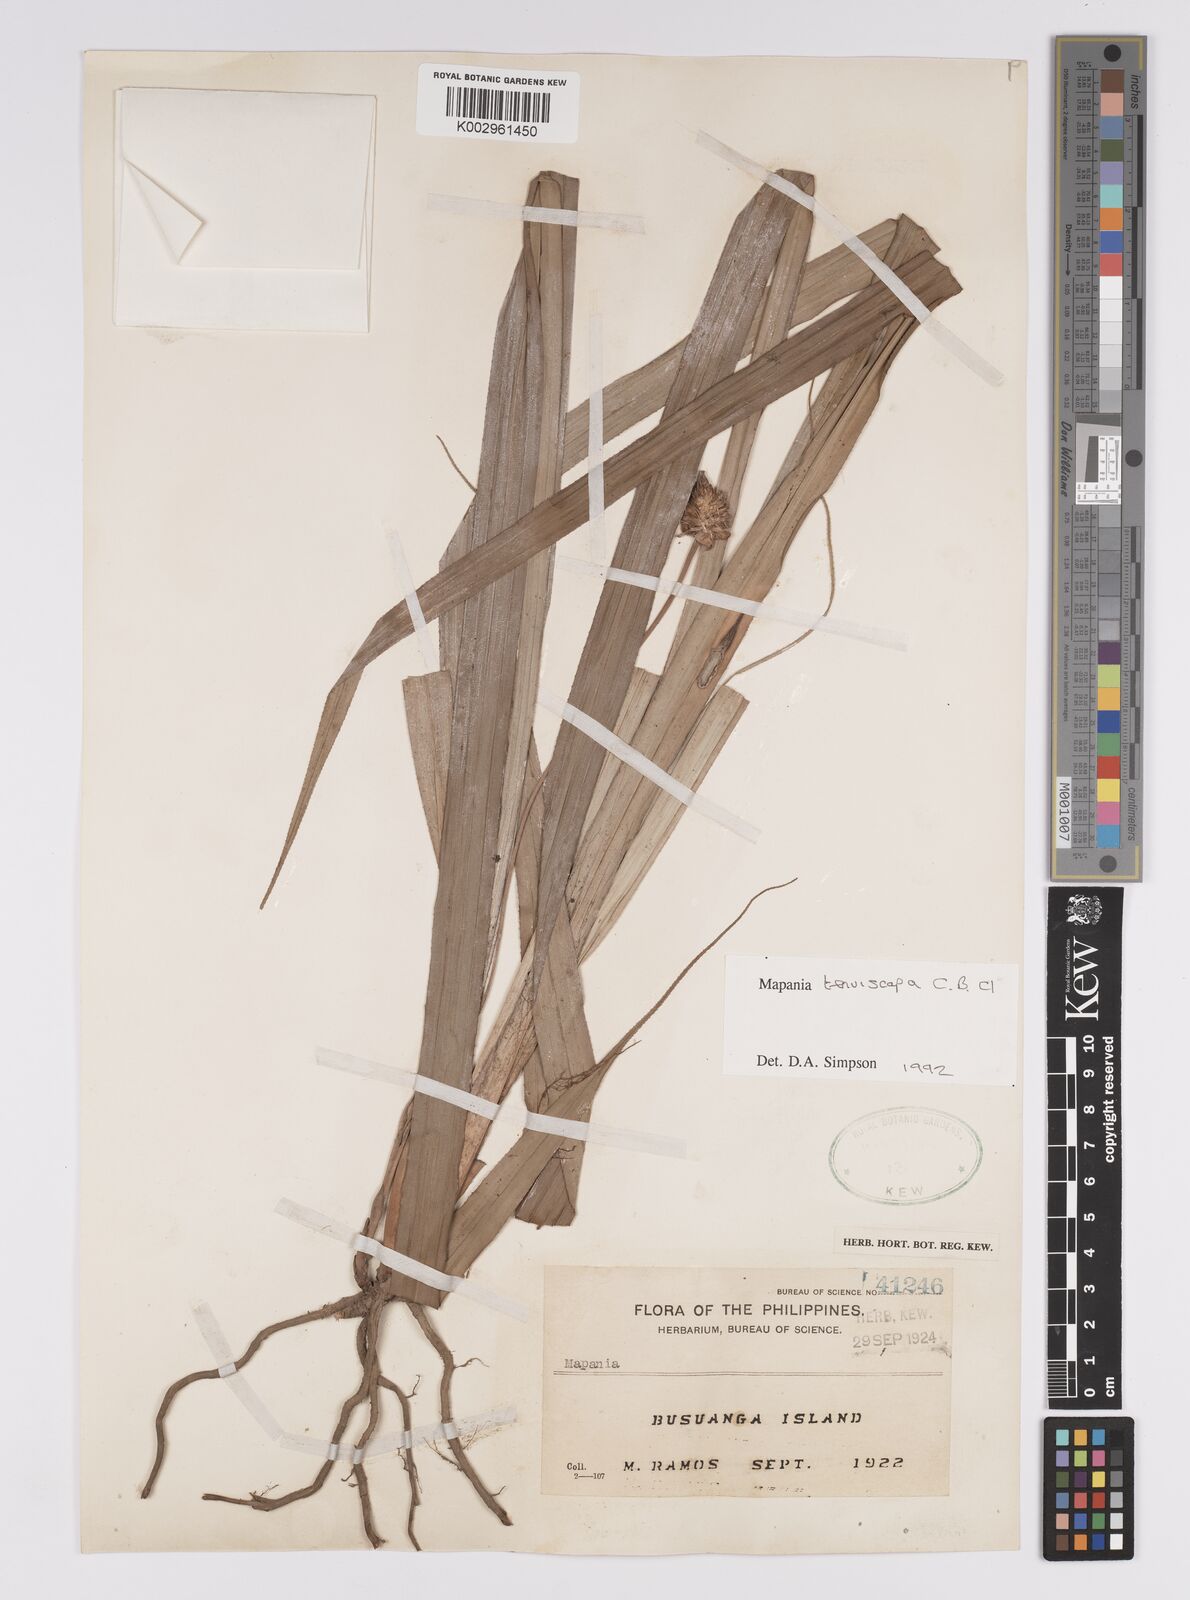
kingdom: Plantae
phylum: Tracheophyta
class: Liliopsida
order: Poales
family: Cyperaceae
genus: Mapania
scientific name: Mapania tenuiscapa
